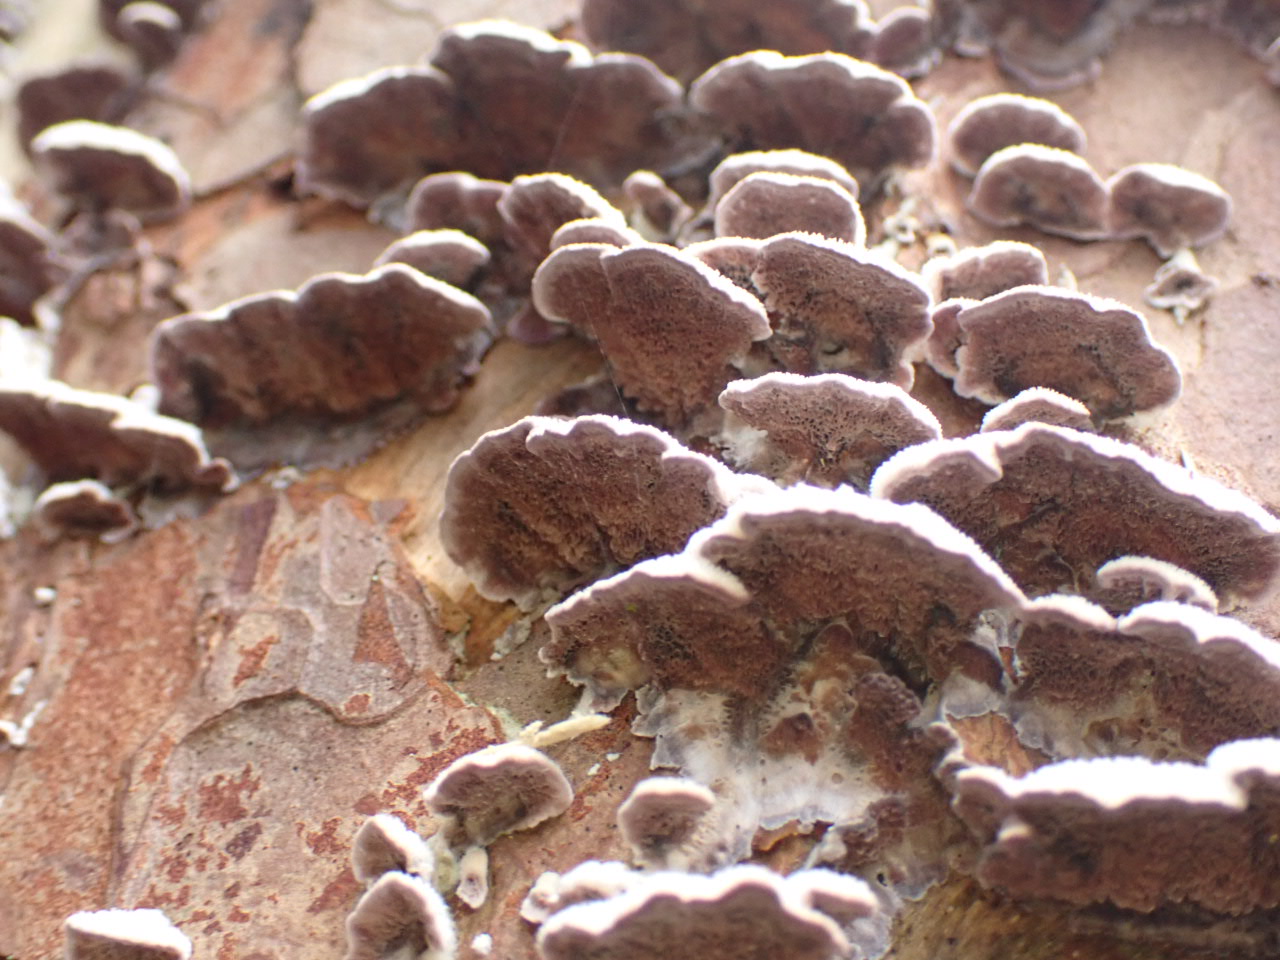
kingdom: Fungi
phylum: Basidiomycota
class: Agaricomycetes
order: Hymenochaetales
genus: Trichaptum
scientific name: Trichaptum fuscoviolaceum
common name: tandet violporesvamp
